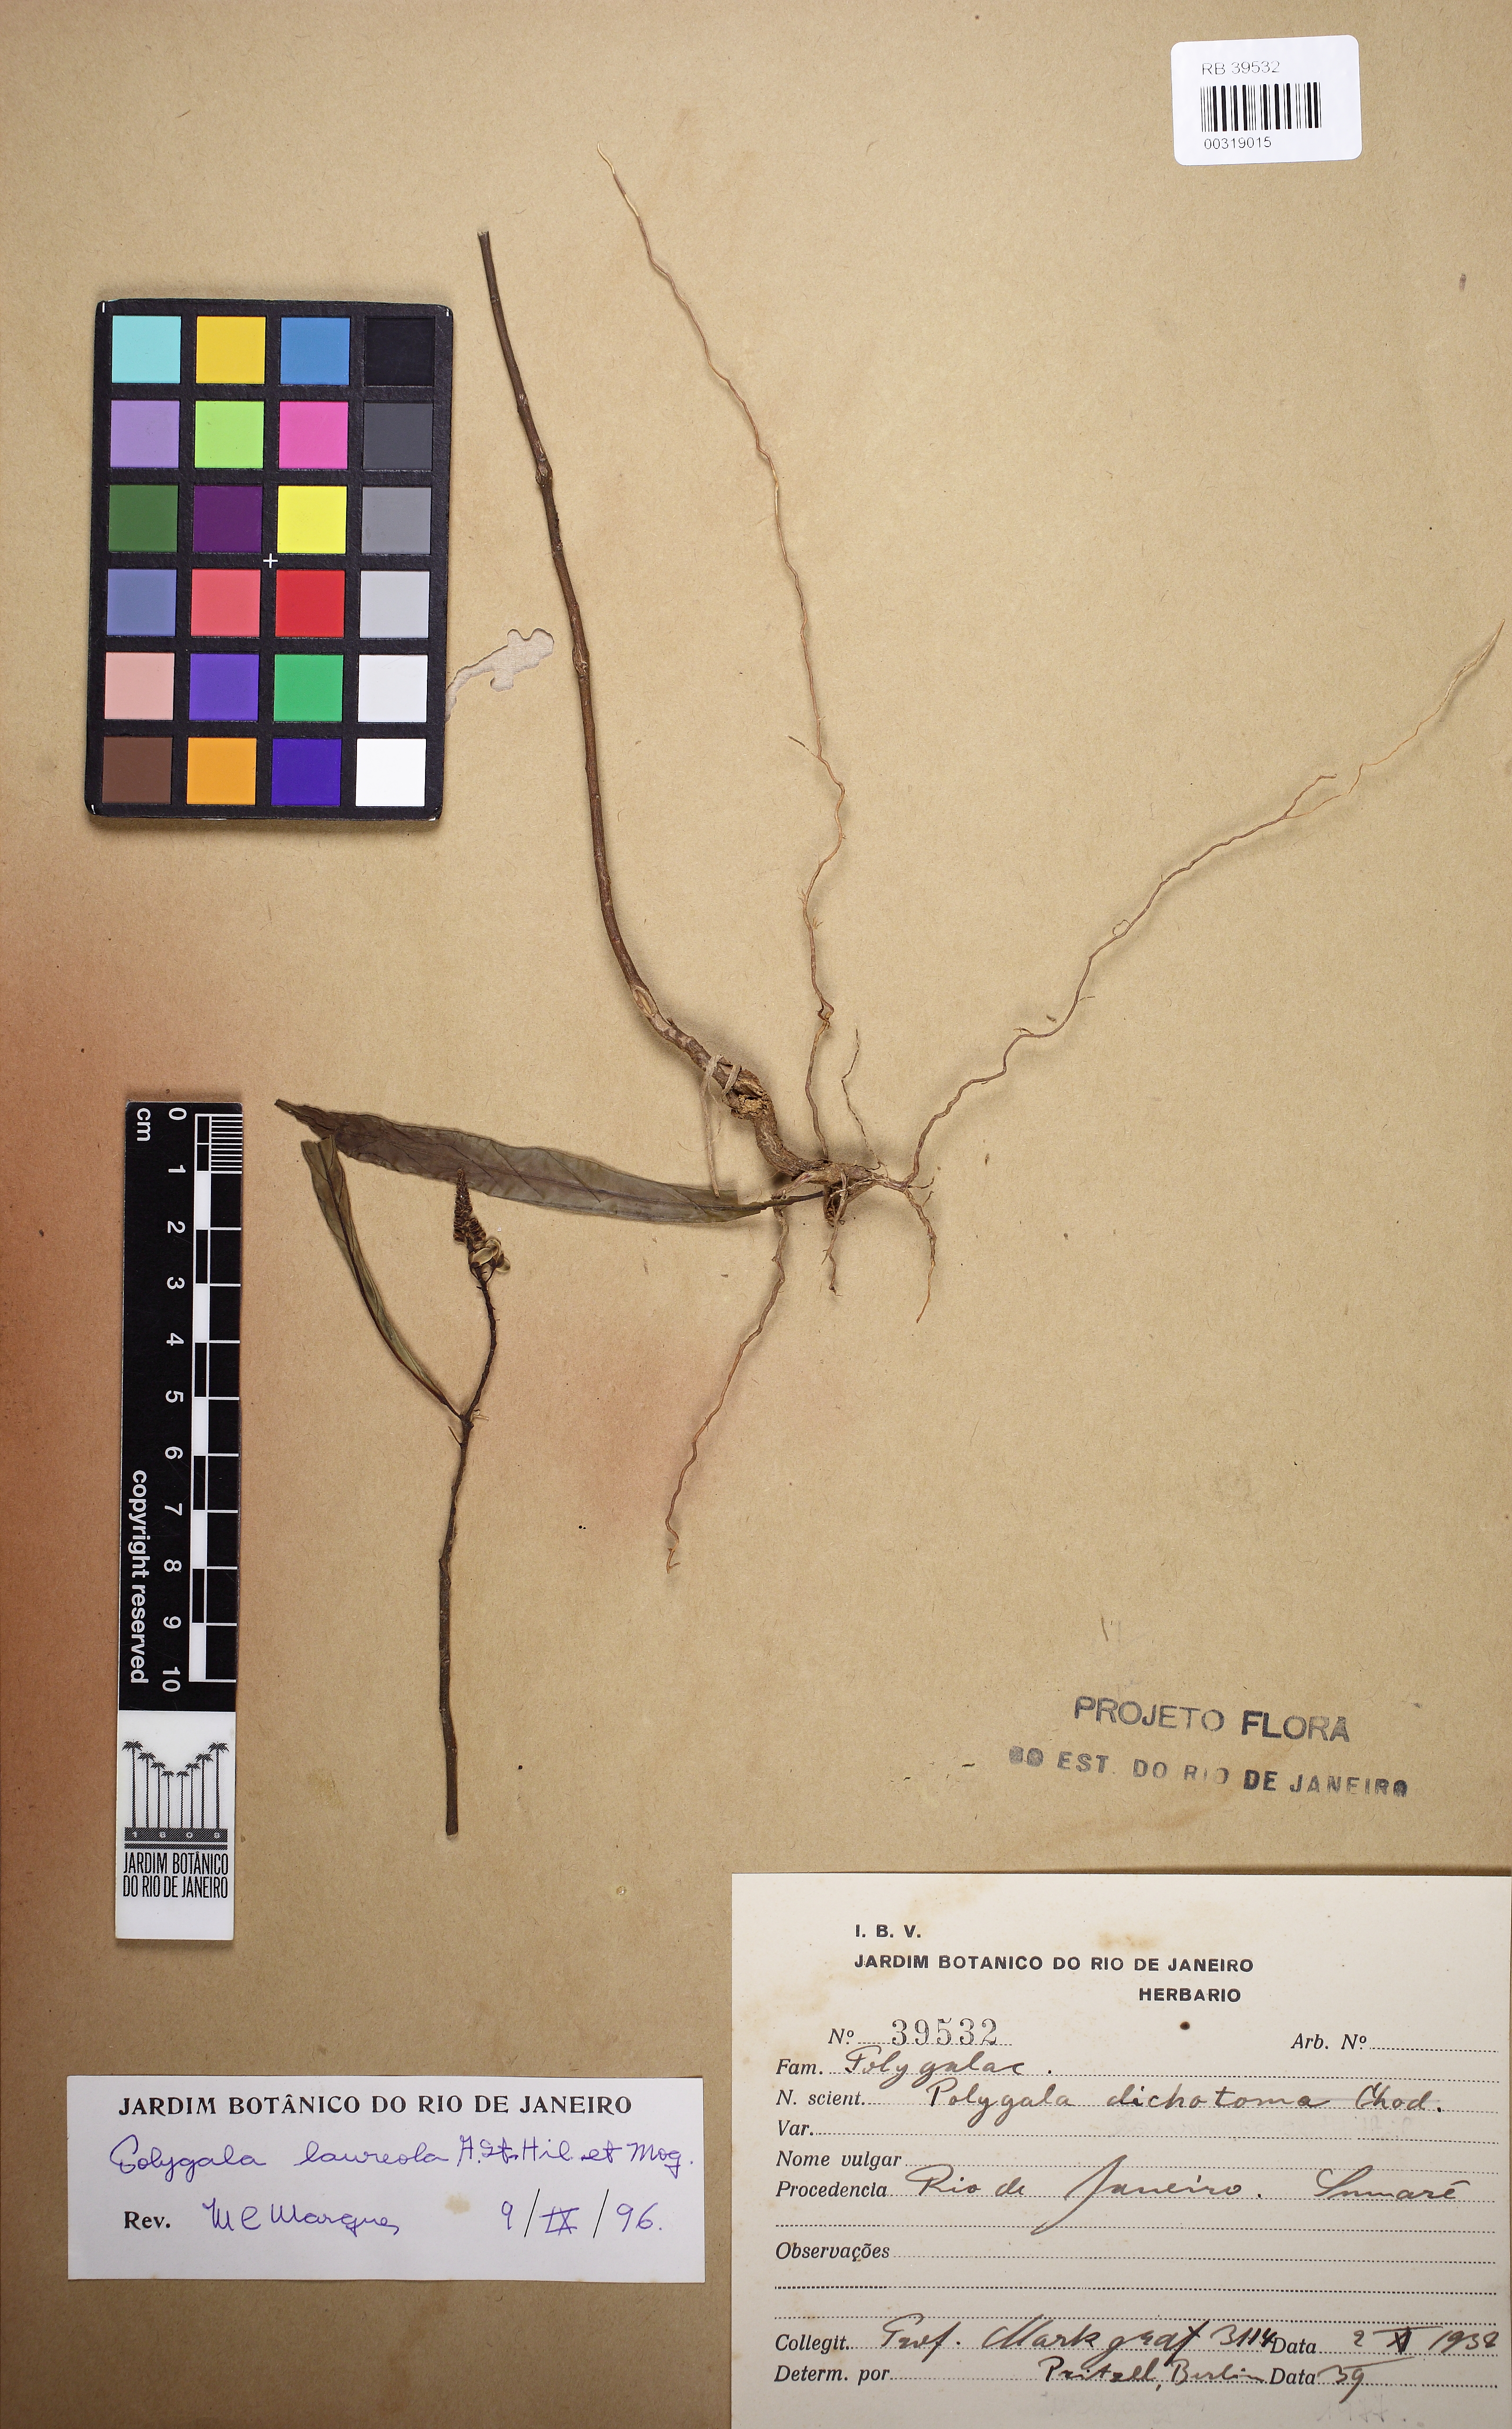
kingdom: Plantae
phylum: Tracheophyta
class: Magnoliopsida
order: Fabales
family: Polygalaceae
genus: Caamembeca
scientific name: Caamembeca salicifolia
